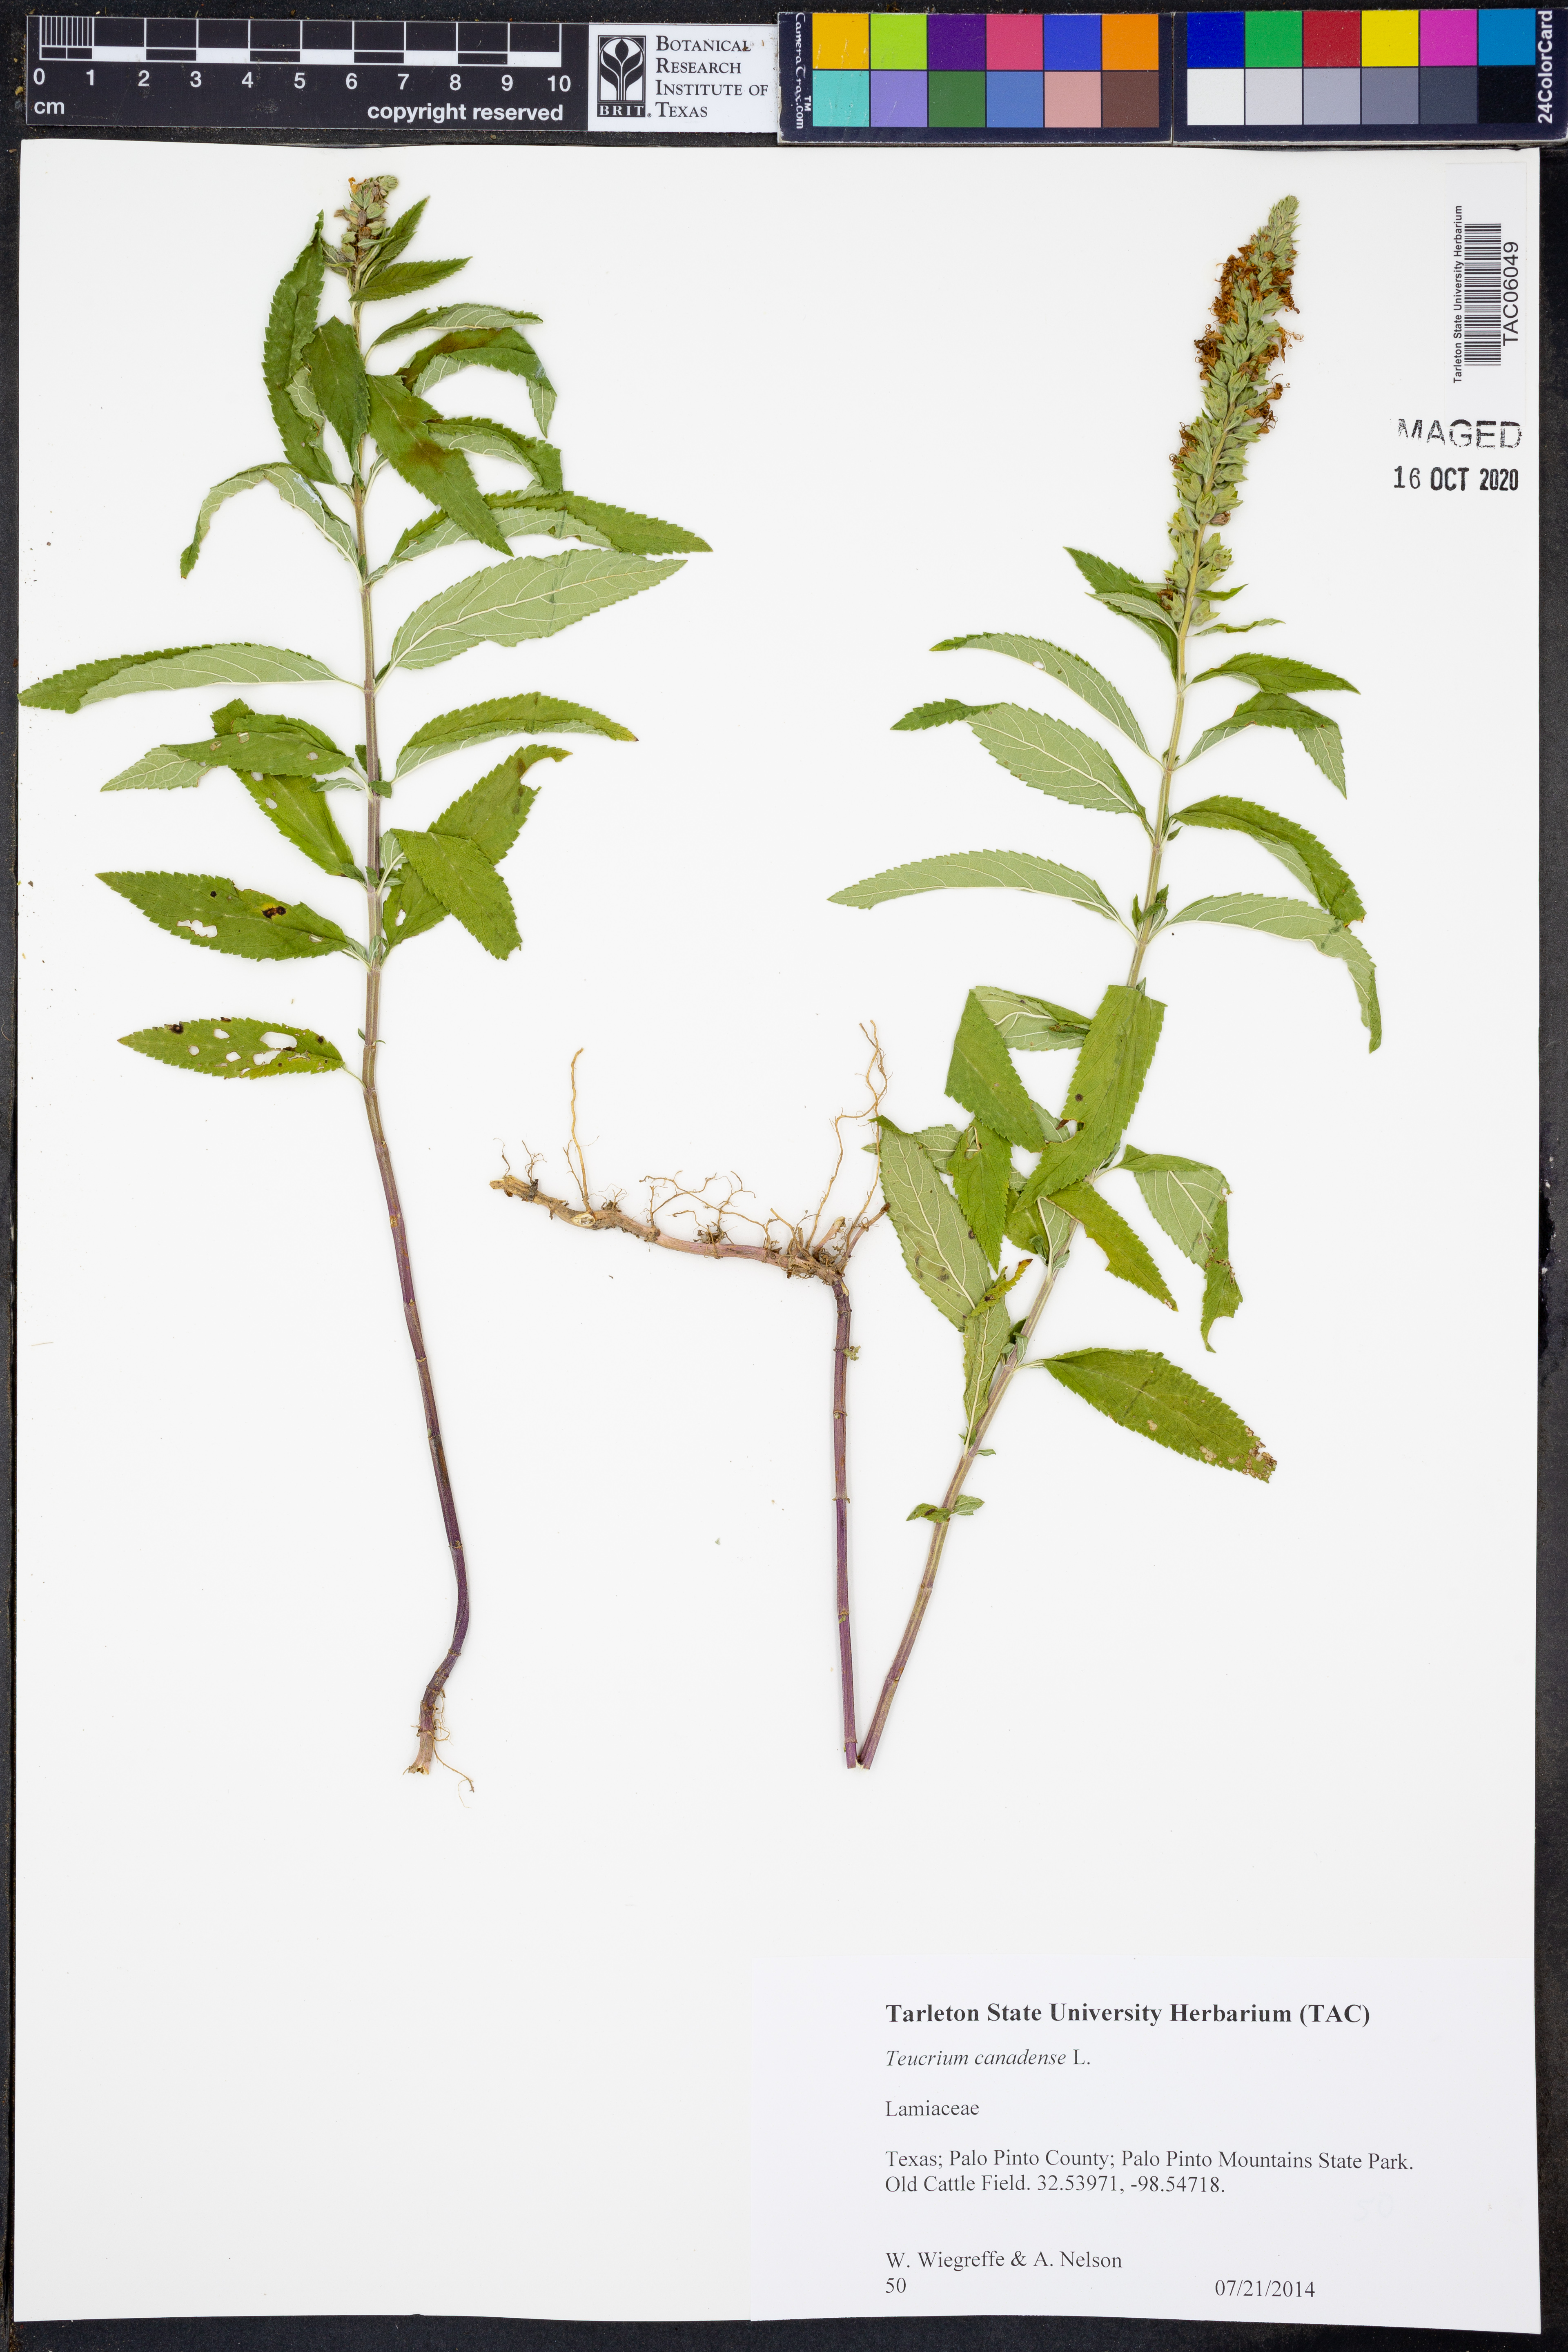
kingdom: Plantae
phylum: Tracheophyta
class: Magnoliopsida
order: Lamiales
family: Lamiaceae
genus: Teucrium
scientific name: Teucrium canadense
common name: American germander
